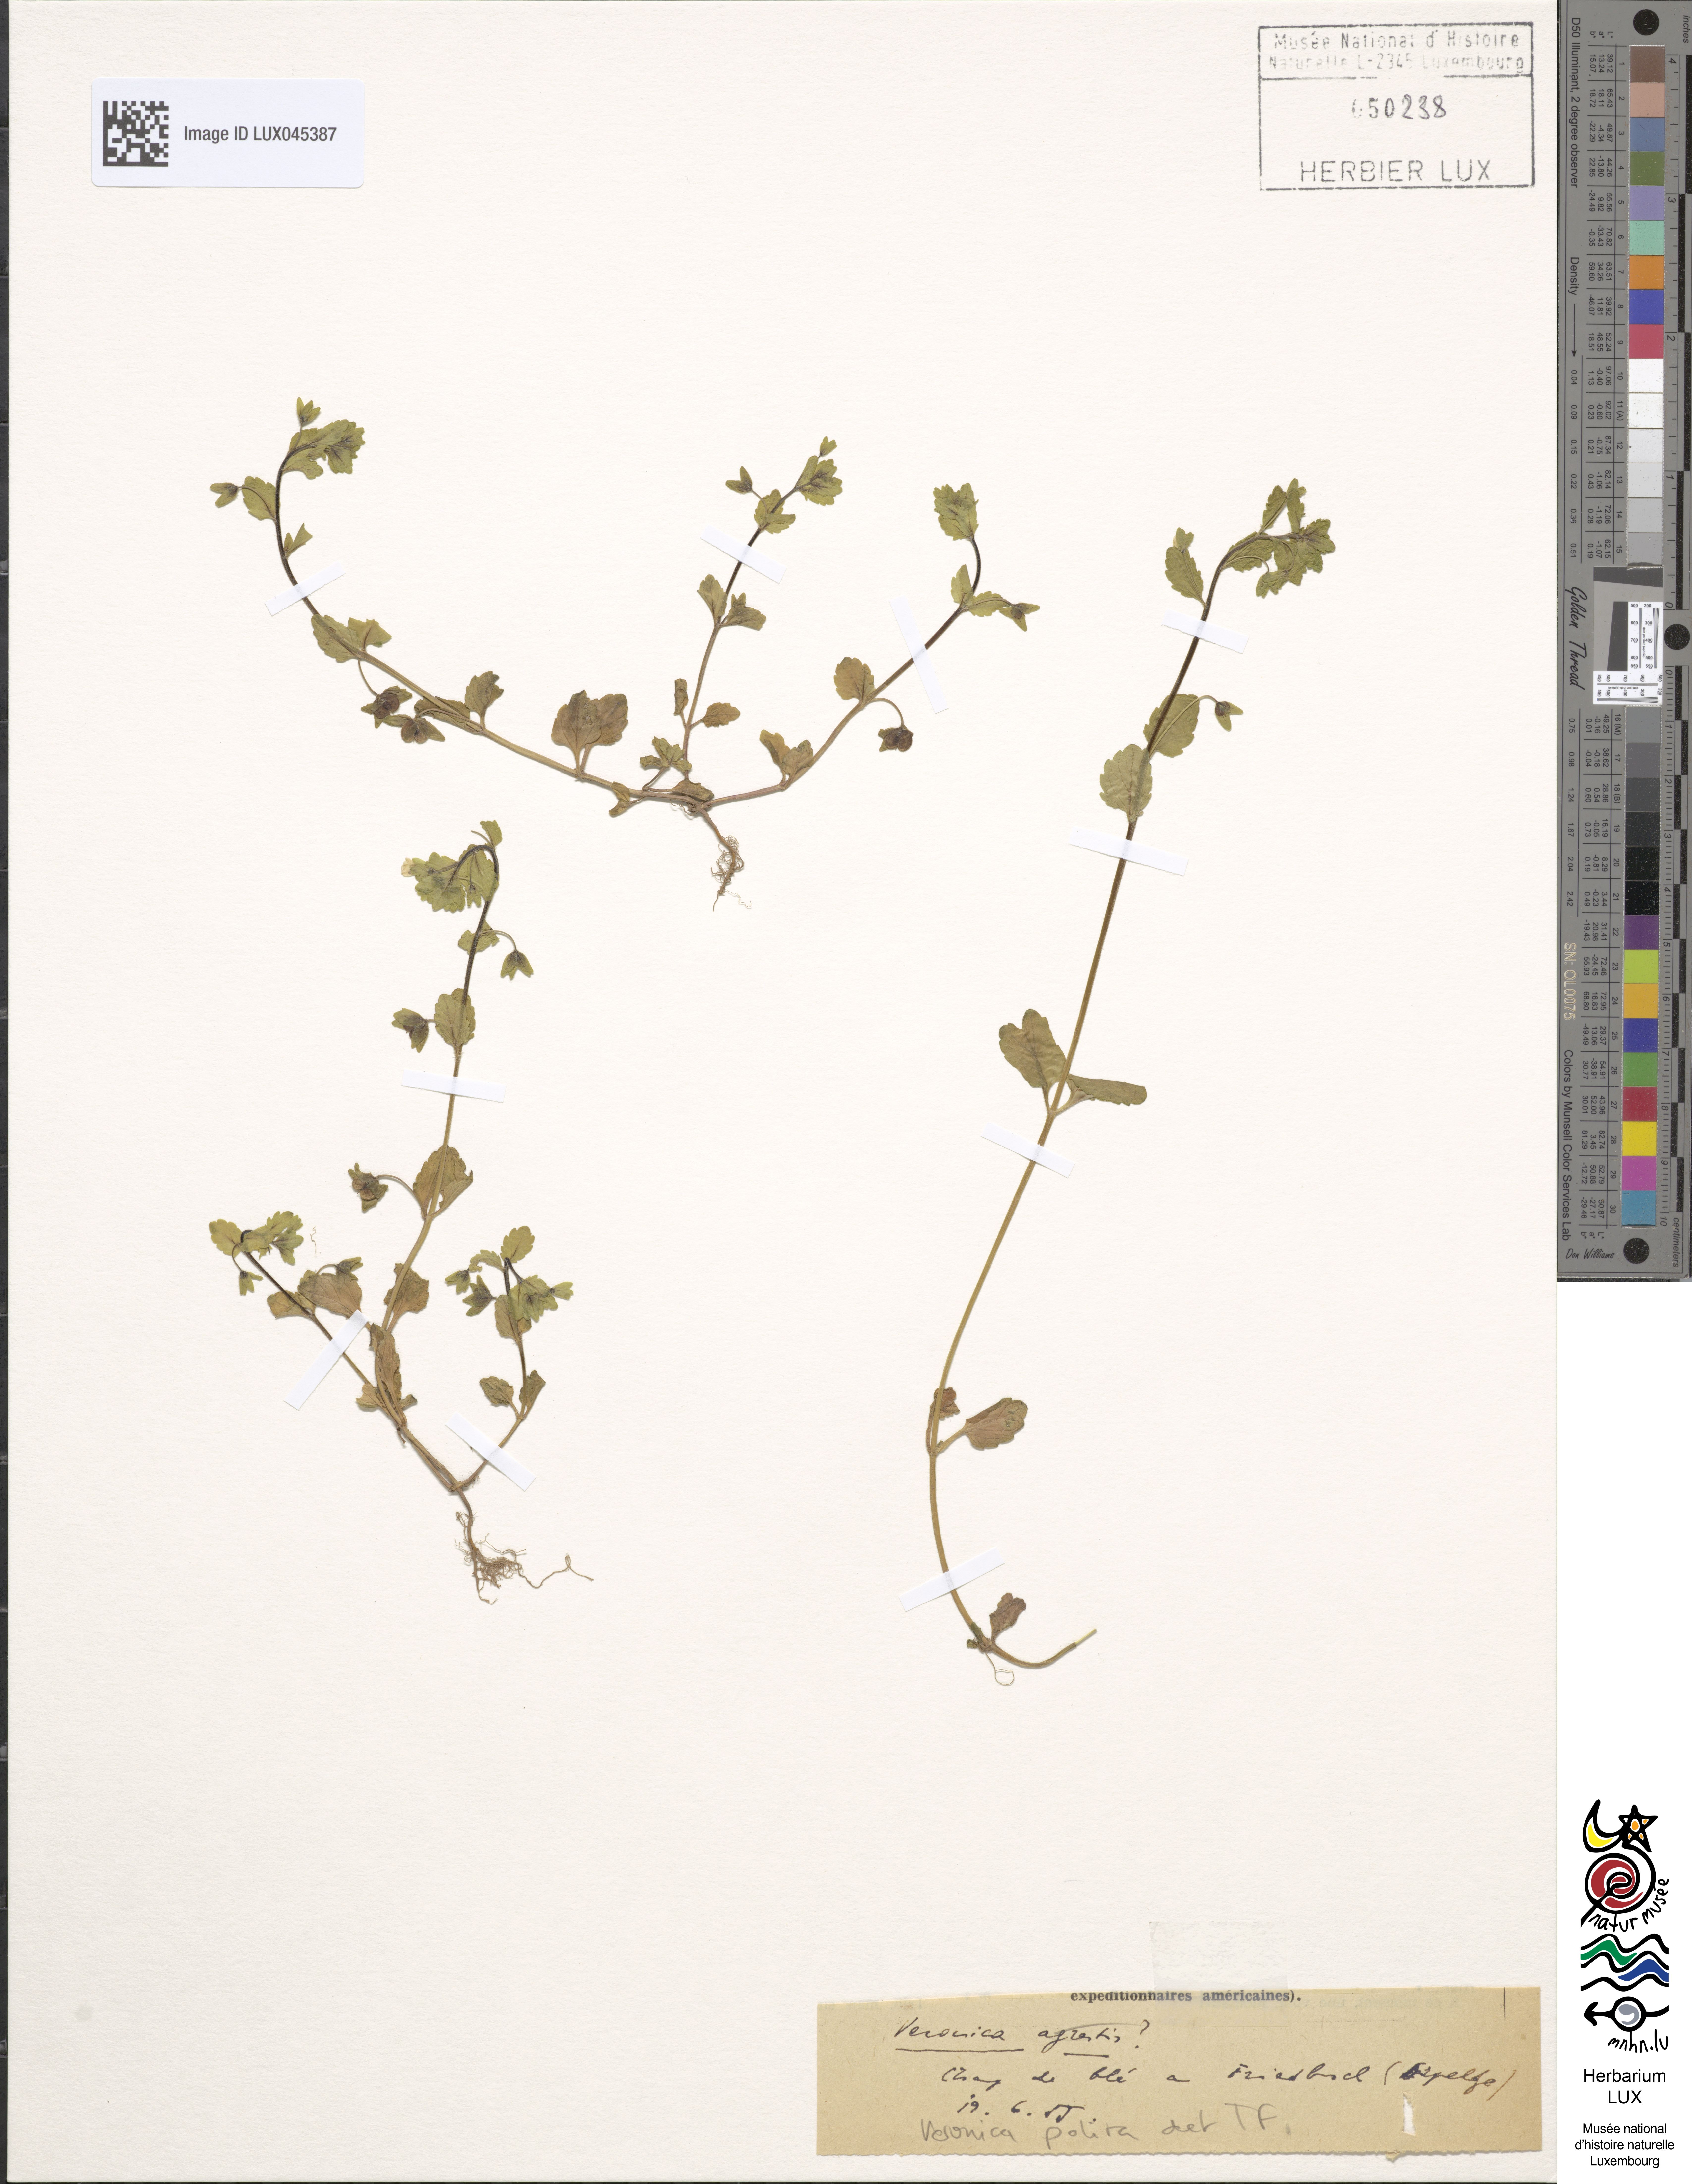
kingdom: Plantae
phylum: Tracheophyta
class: Magnoliopsida
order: Lamiales
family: Plantaginaceae
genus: Veronica
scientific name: Veronica polita
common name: Grey field-speedwell
